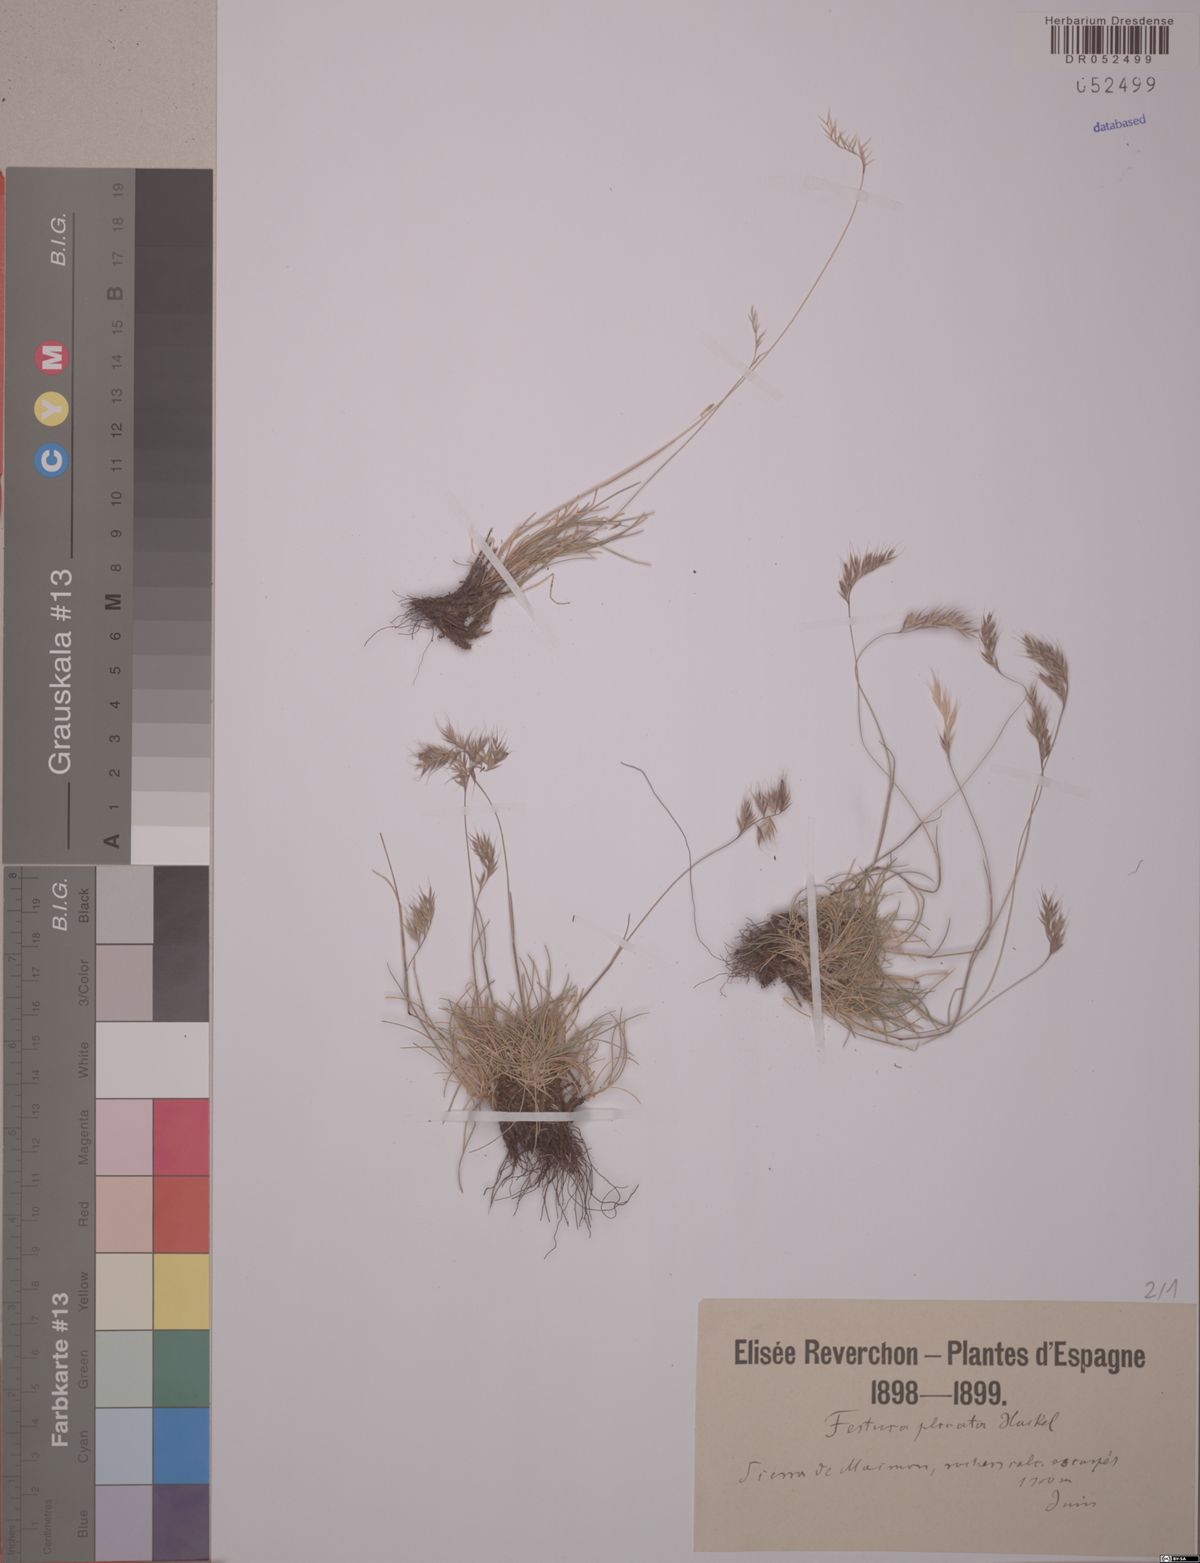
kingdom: Plantae
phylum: Tracheophyta
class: Liliopsida
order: Poales
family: Poaceae
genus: Festuca
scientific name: Festuca plicata
